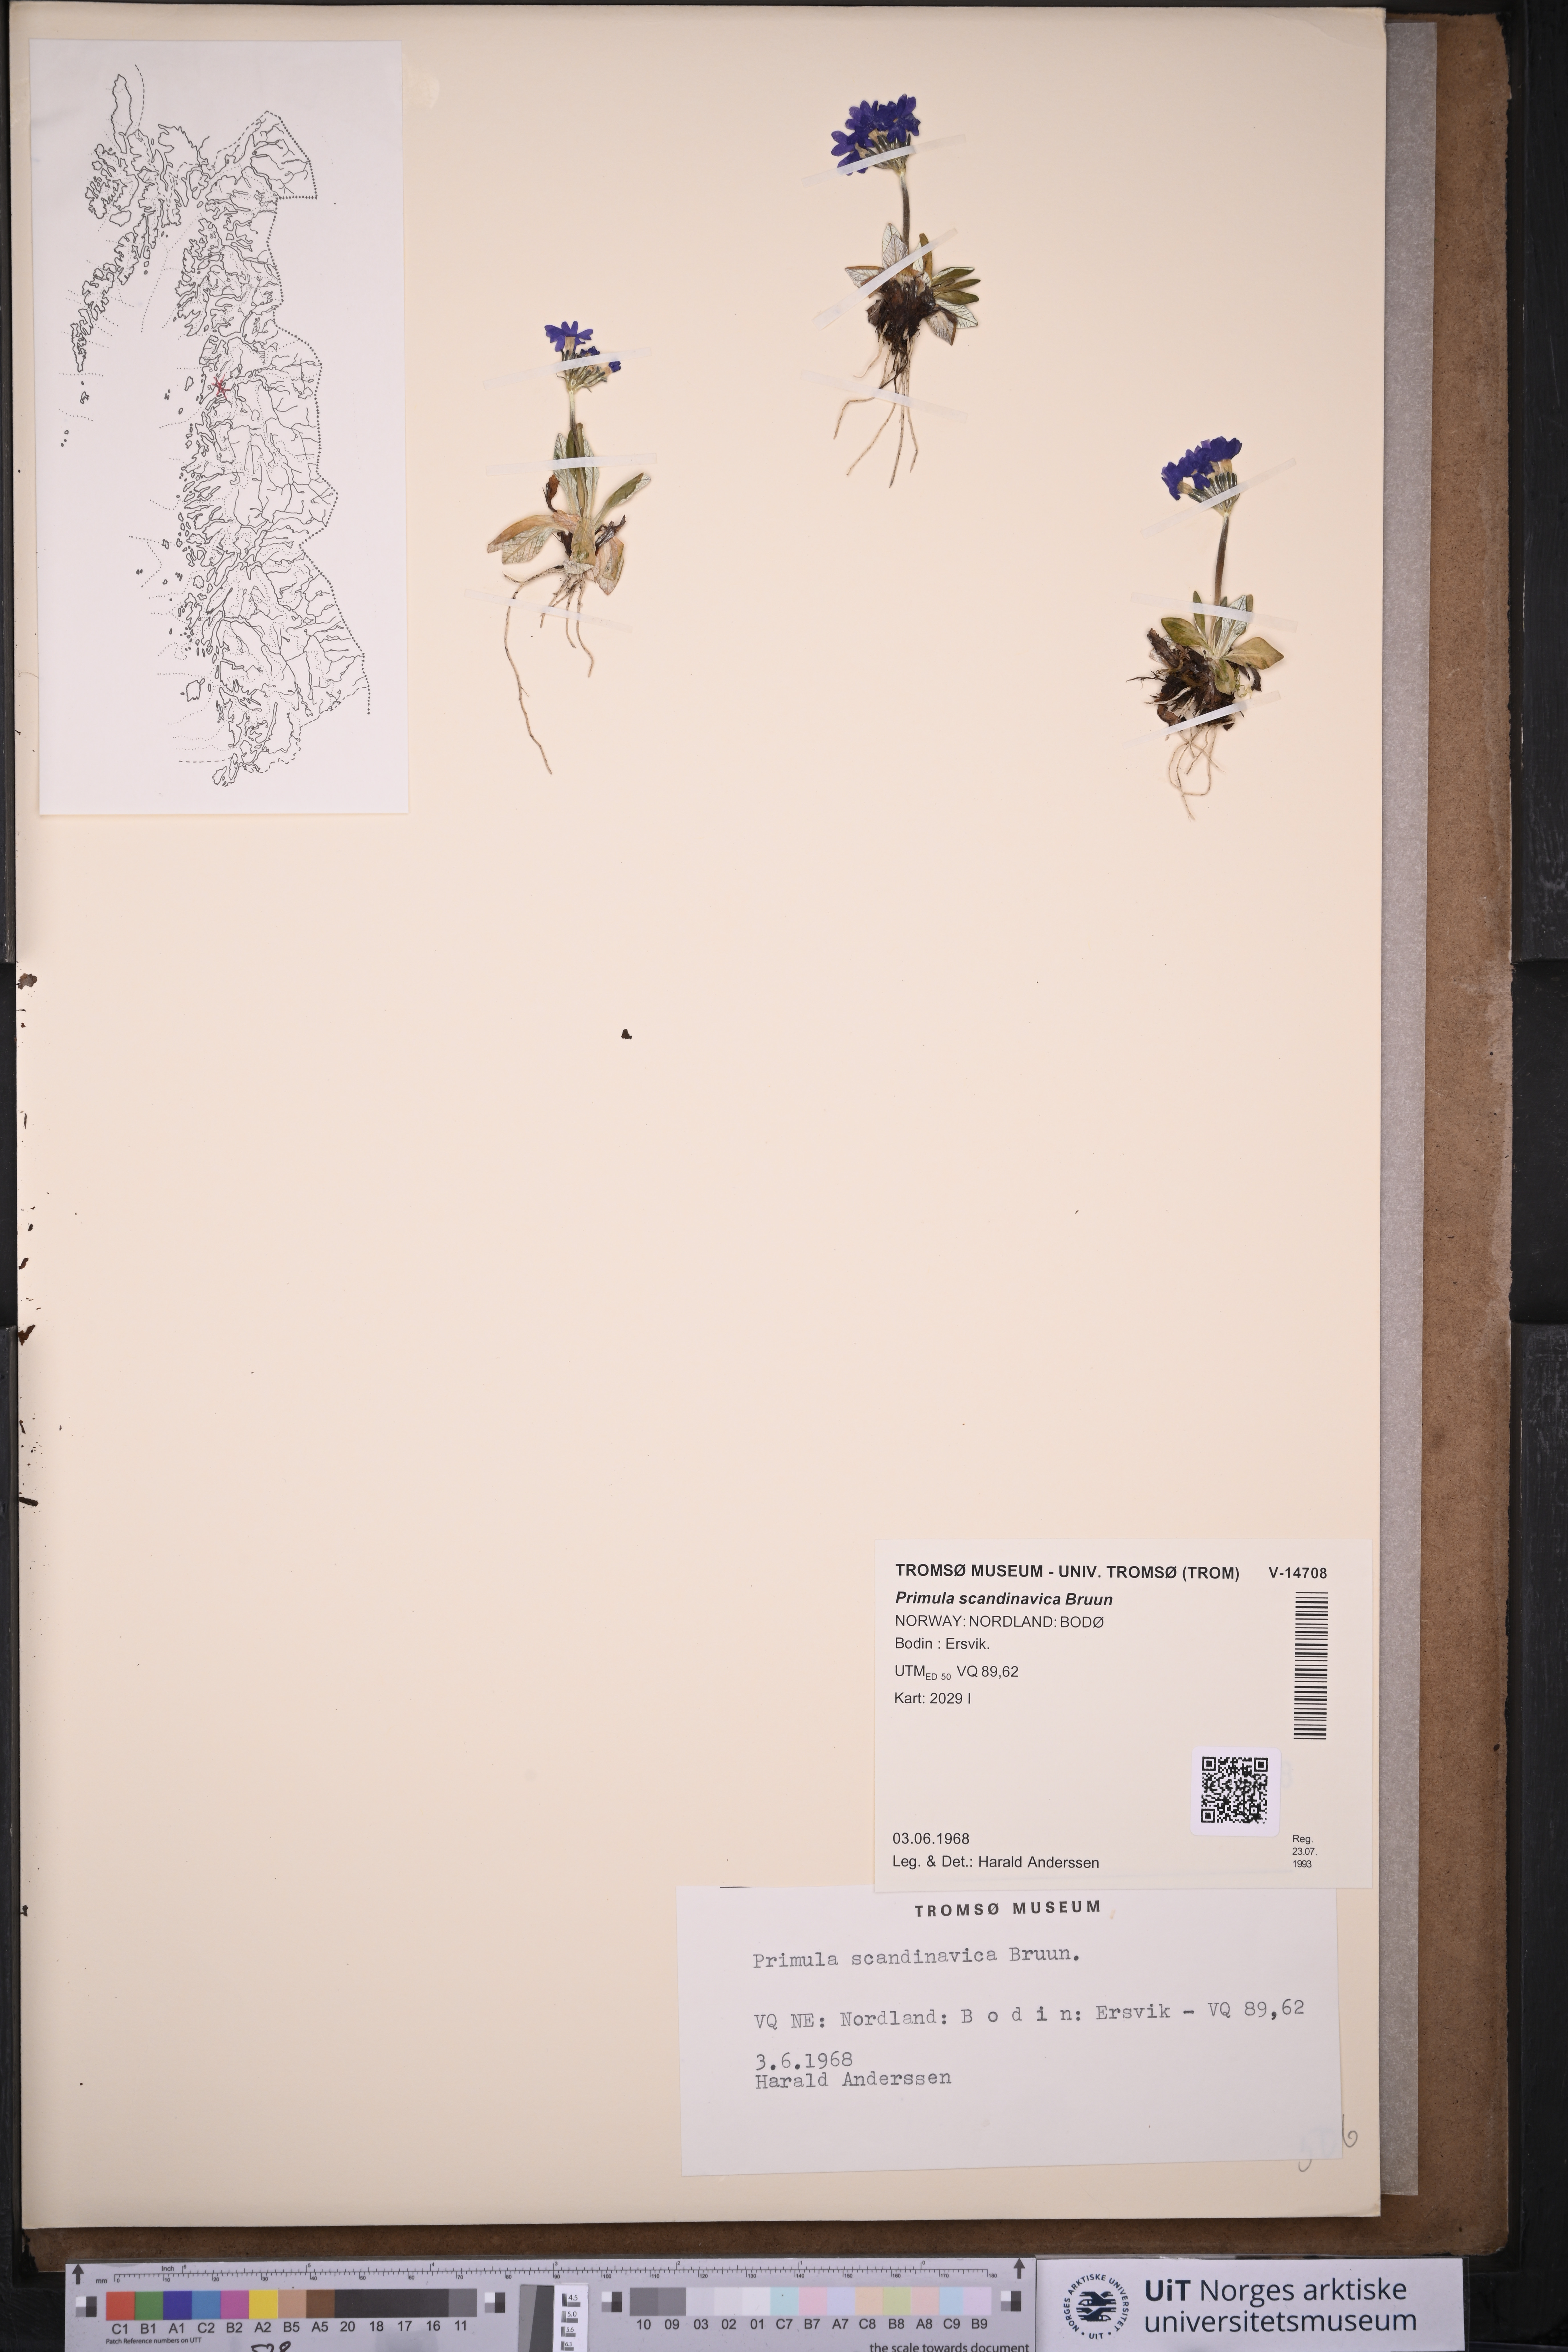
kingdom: Plantae
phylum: Tracheophyta
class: Magnoliopsida
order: Ericales
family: Primulaceae
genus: Primula
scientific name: Primula scandinavica
